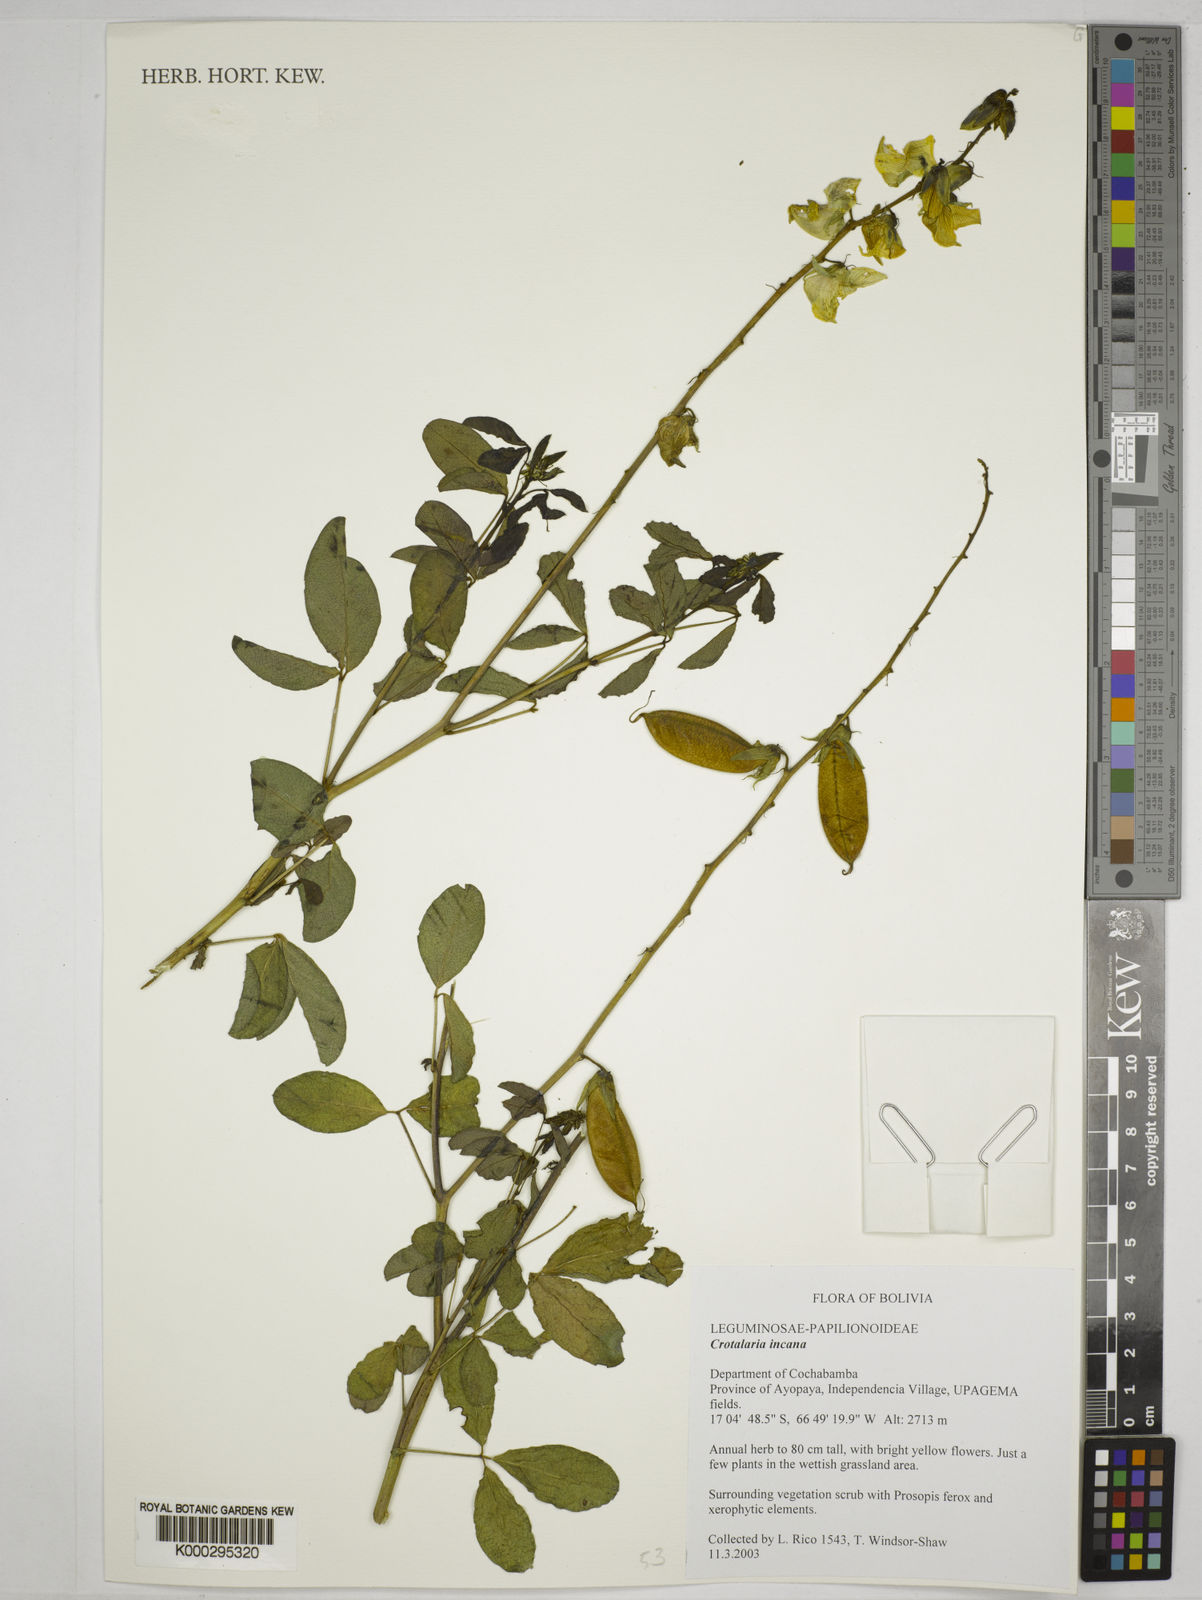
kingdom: Plantae
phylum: Tracheophyta
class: Magnoliopsida
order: Fabales
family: Fabaceae
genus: Crotalaria
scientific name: Crotalaria incana
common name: Shakeshake
